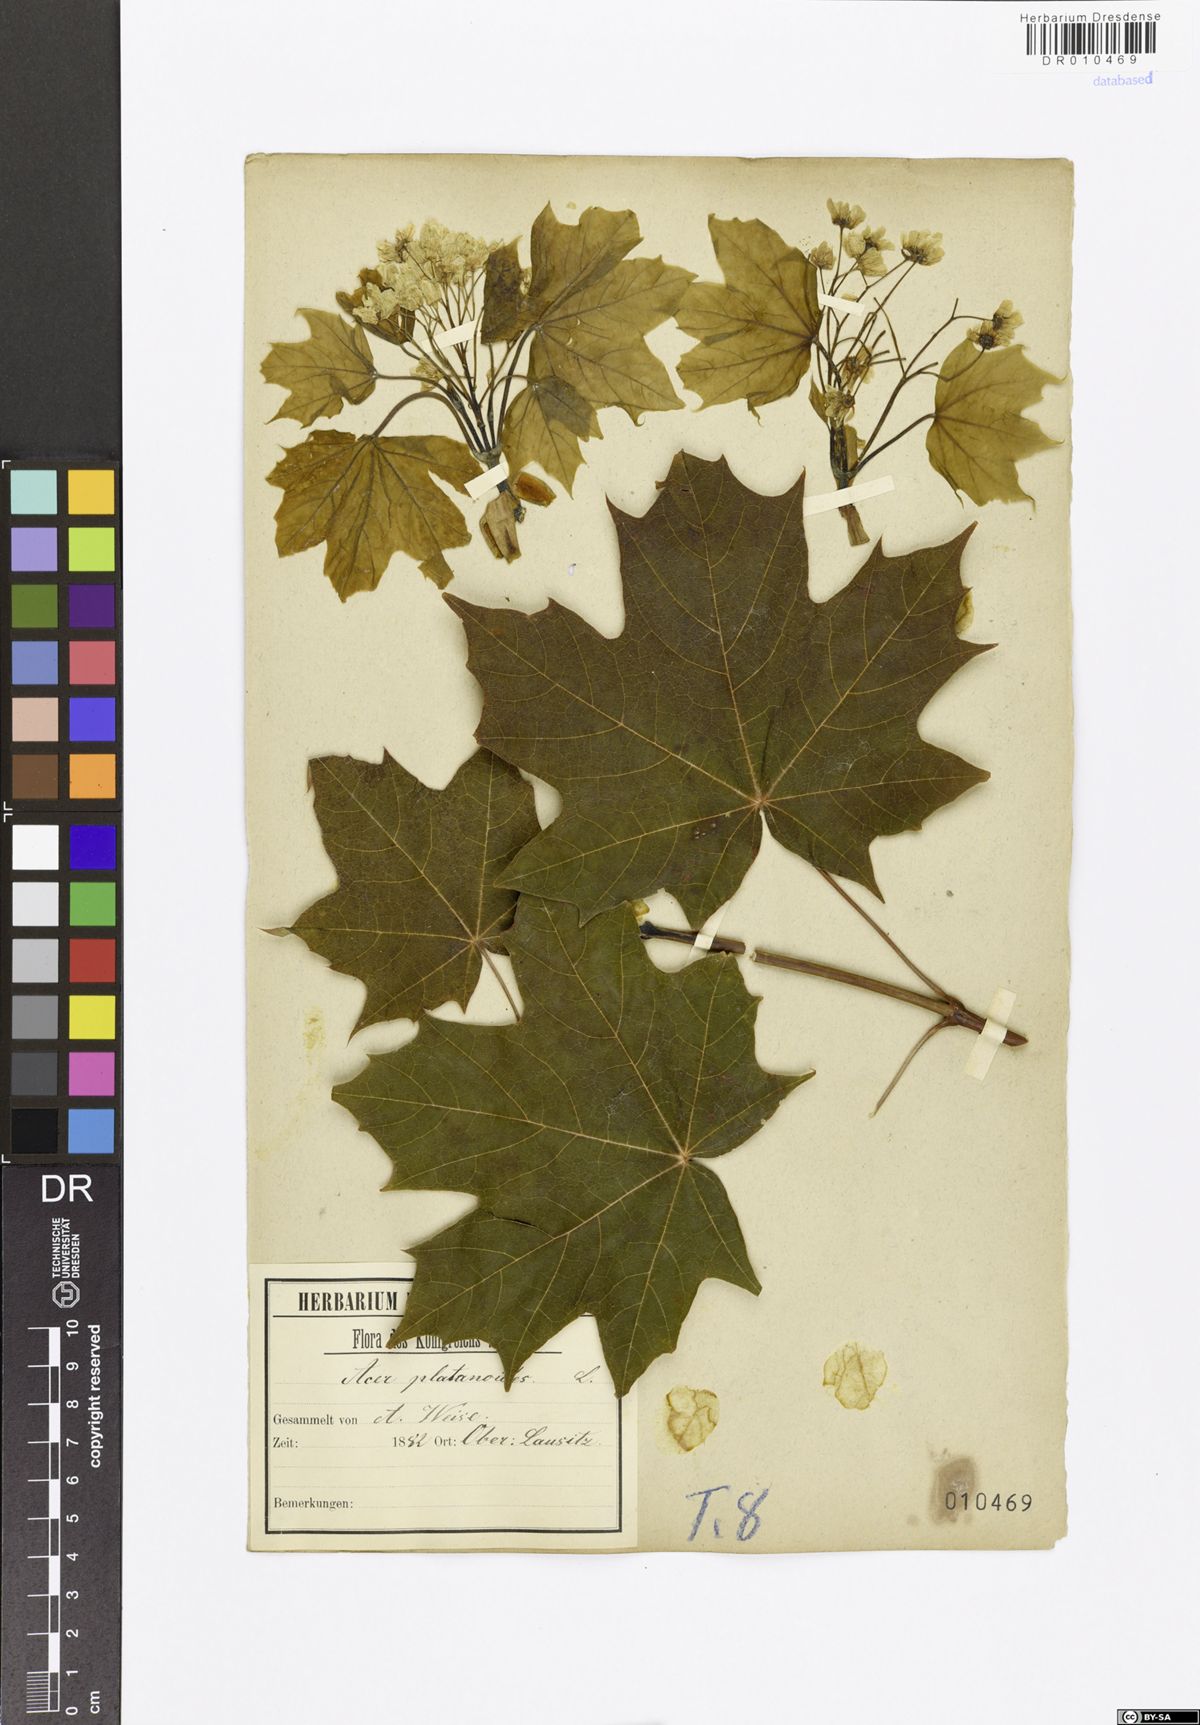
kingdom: Plantae
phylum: Tracheophyta
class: Magnoliopsida
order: Sapindales
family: Sapindaceae
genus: Acer
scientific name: Acer platanoides
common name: Norway maple
